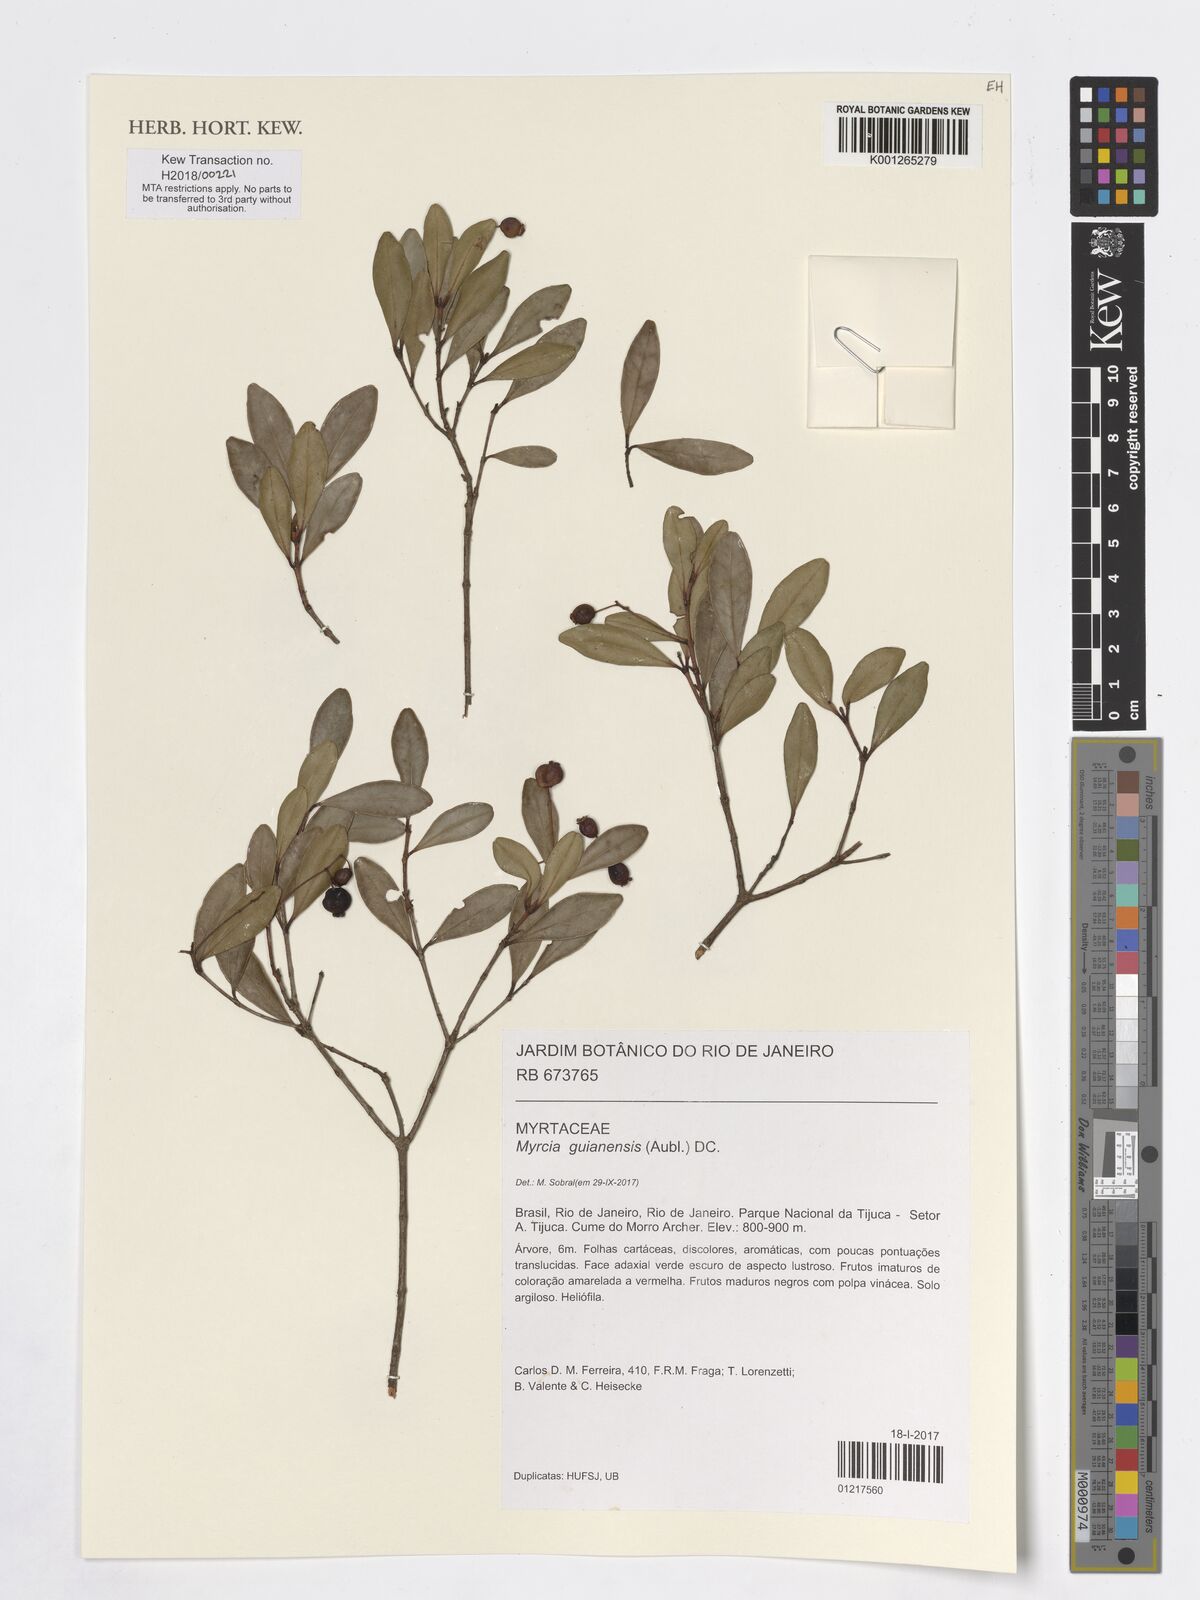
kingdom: Plantae
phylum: Tracheophyta
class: Magnoliopsida
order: Myrtales
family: Myrtaceae
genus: Myrcia
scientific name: Myrcia guianensis
